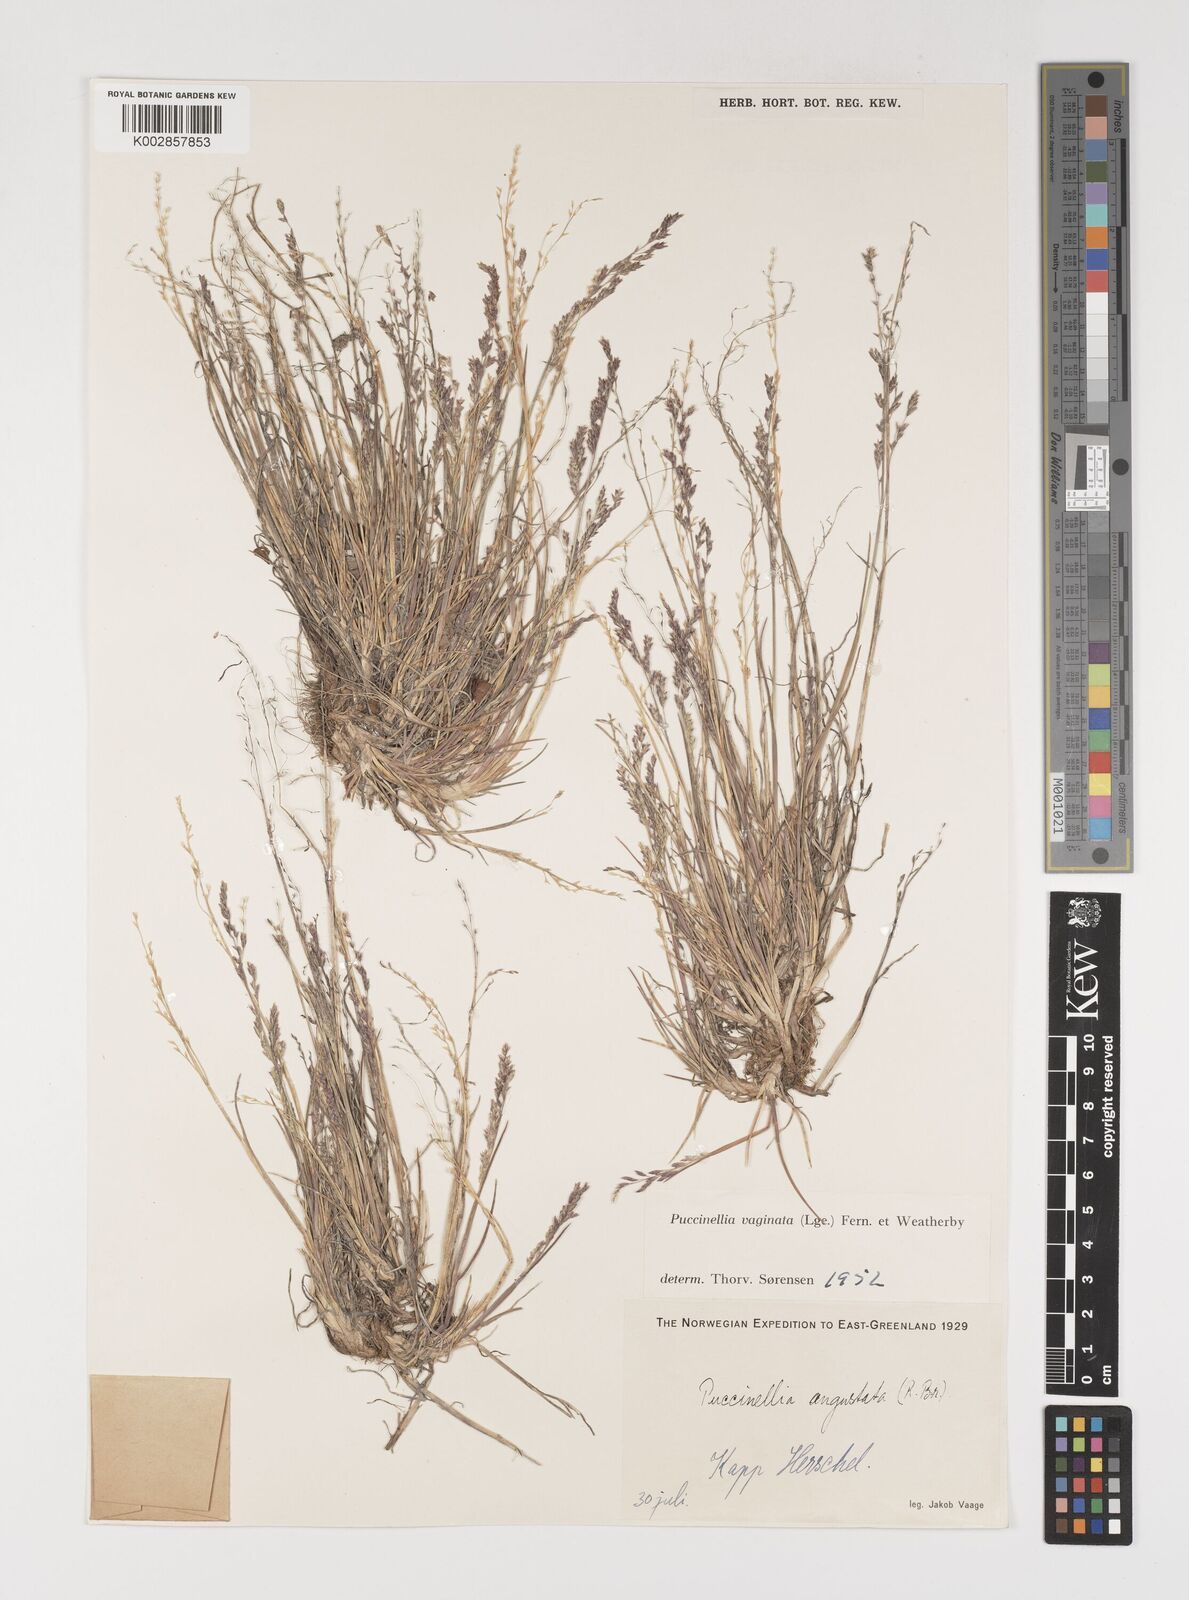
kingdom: Plantae
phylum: Tracheophyta
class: Liliopsida
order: Poales
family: Poaceae
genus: Puccinellia
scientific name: Puccinellia vaginata
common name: Arctic tussock alkaligrass
